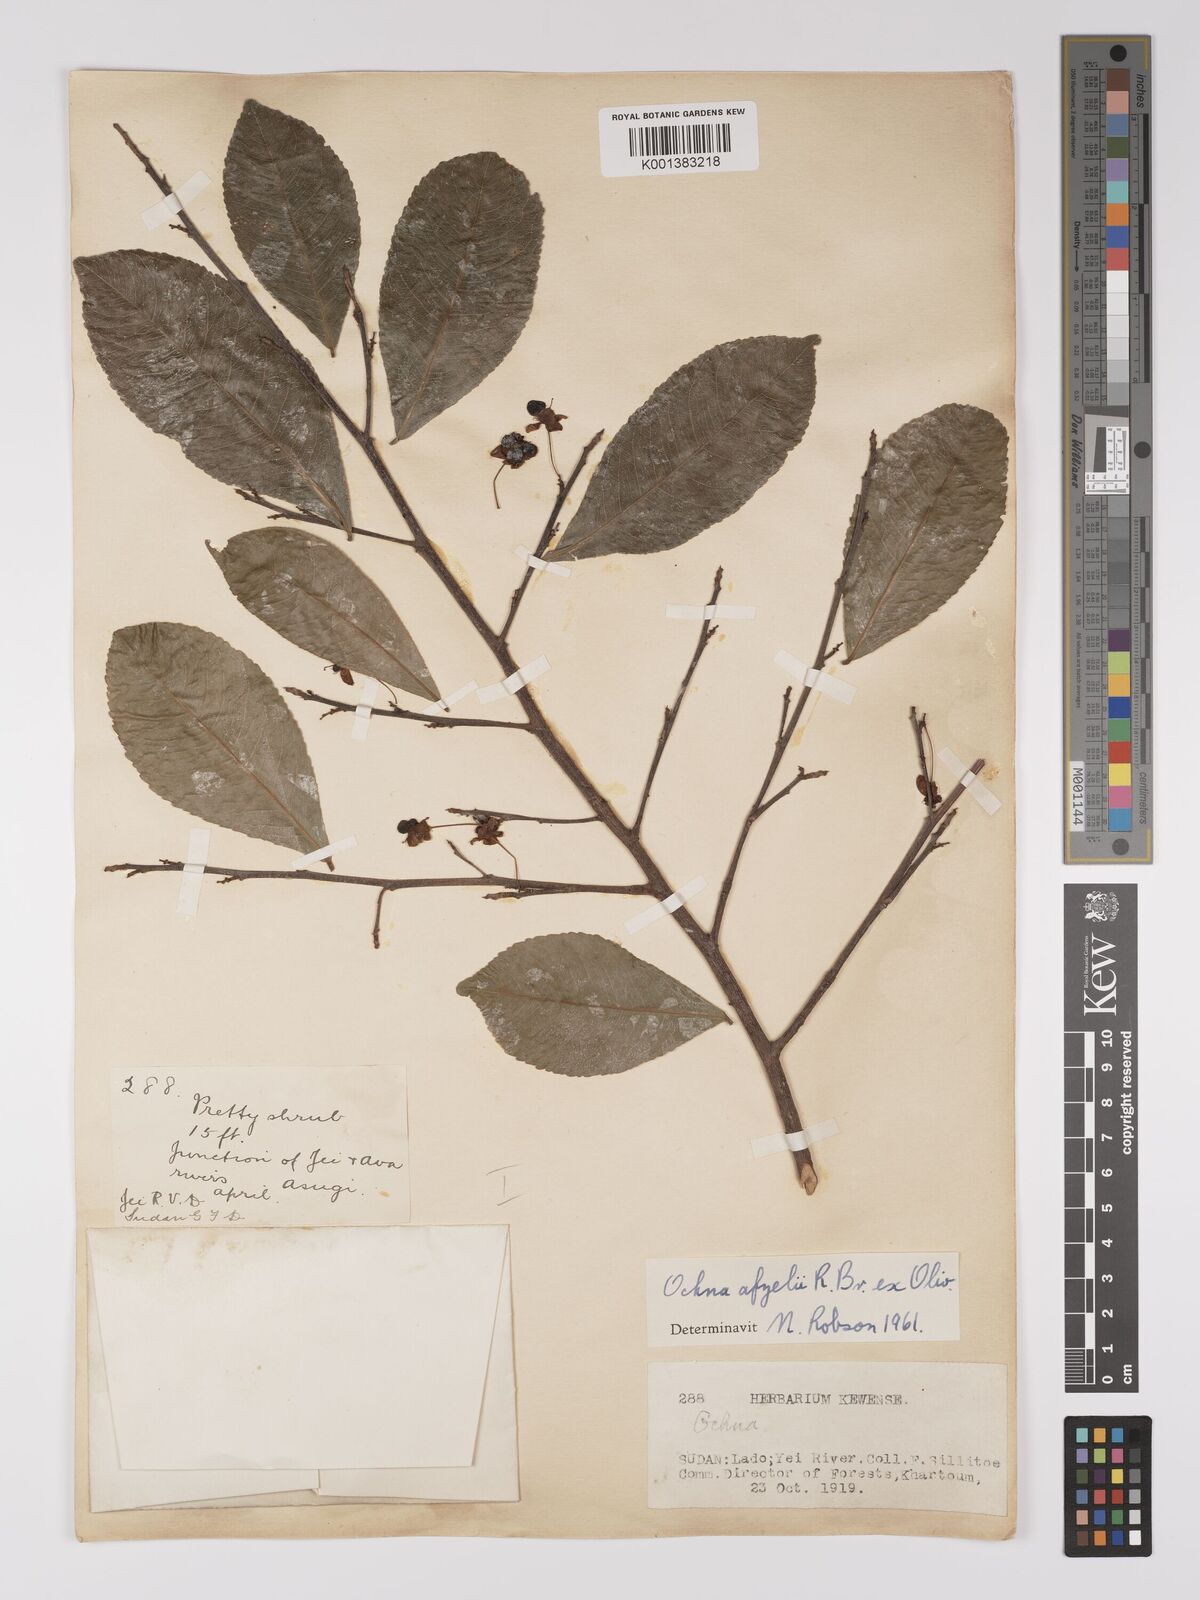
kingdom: Plantae
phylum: Tracheophyta
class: Magnoliopsida
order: Malpighiales
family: Ochnaceae
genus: Ochna
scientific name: Ochna afzelii
